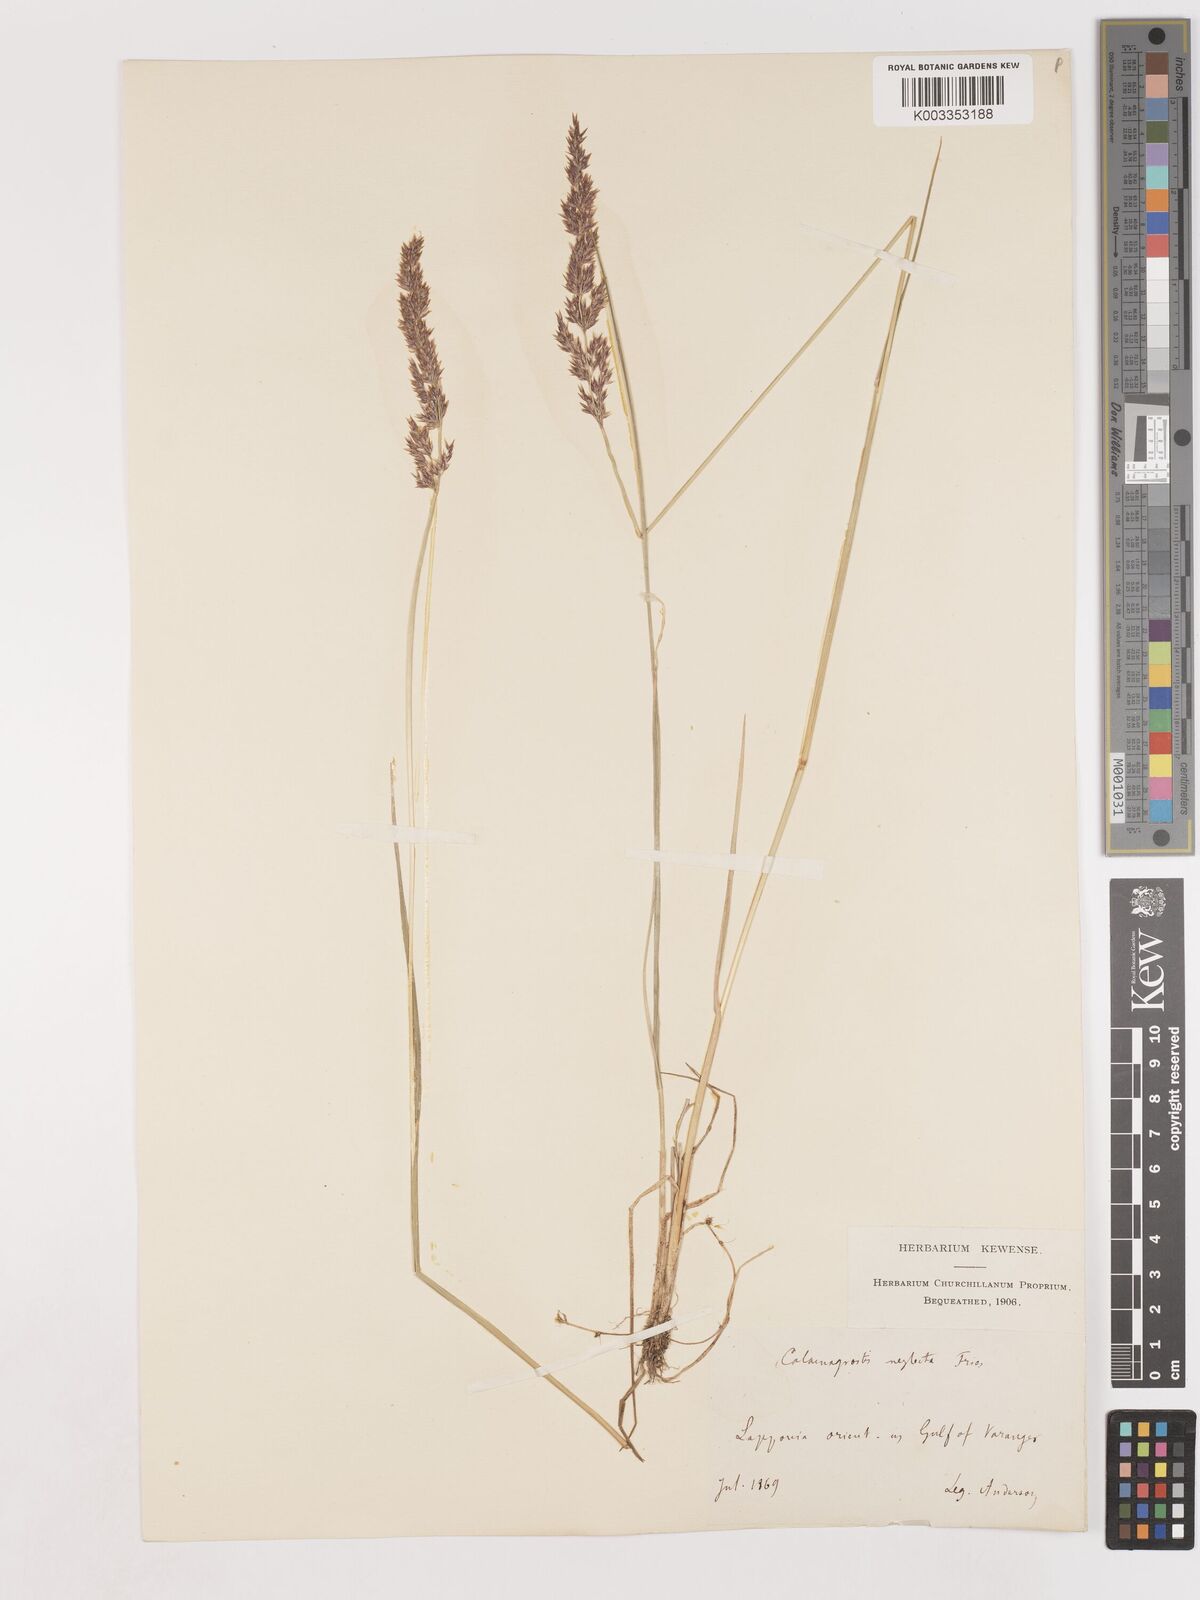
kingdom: Plantae
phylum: Tracheophyta
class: Liliopsida
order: Poales
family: Poaceae
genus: Cinnagrostis
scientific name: Cinnagrostis recta
